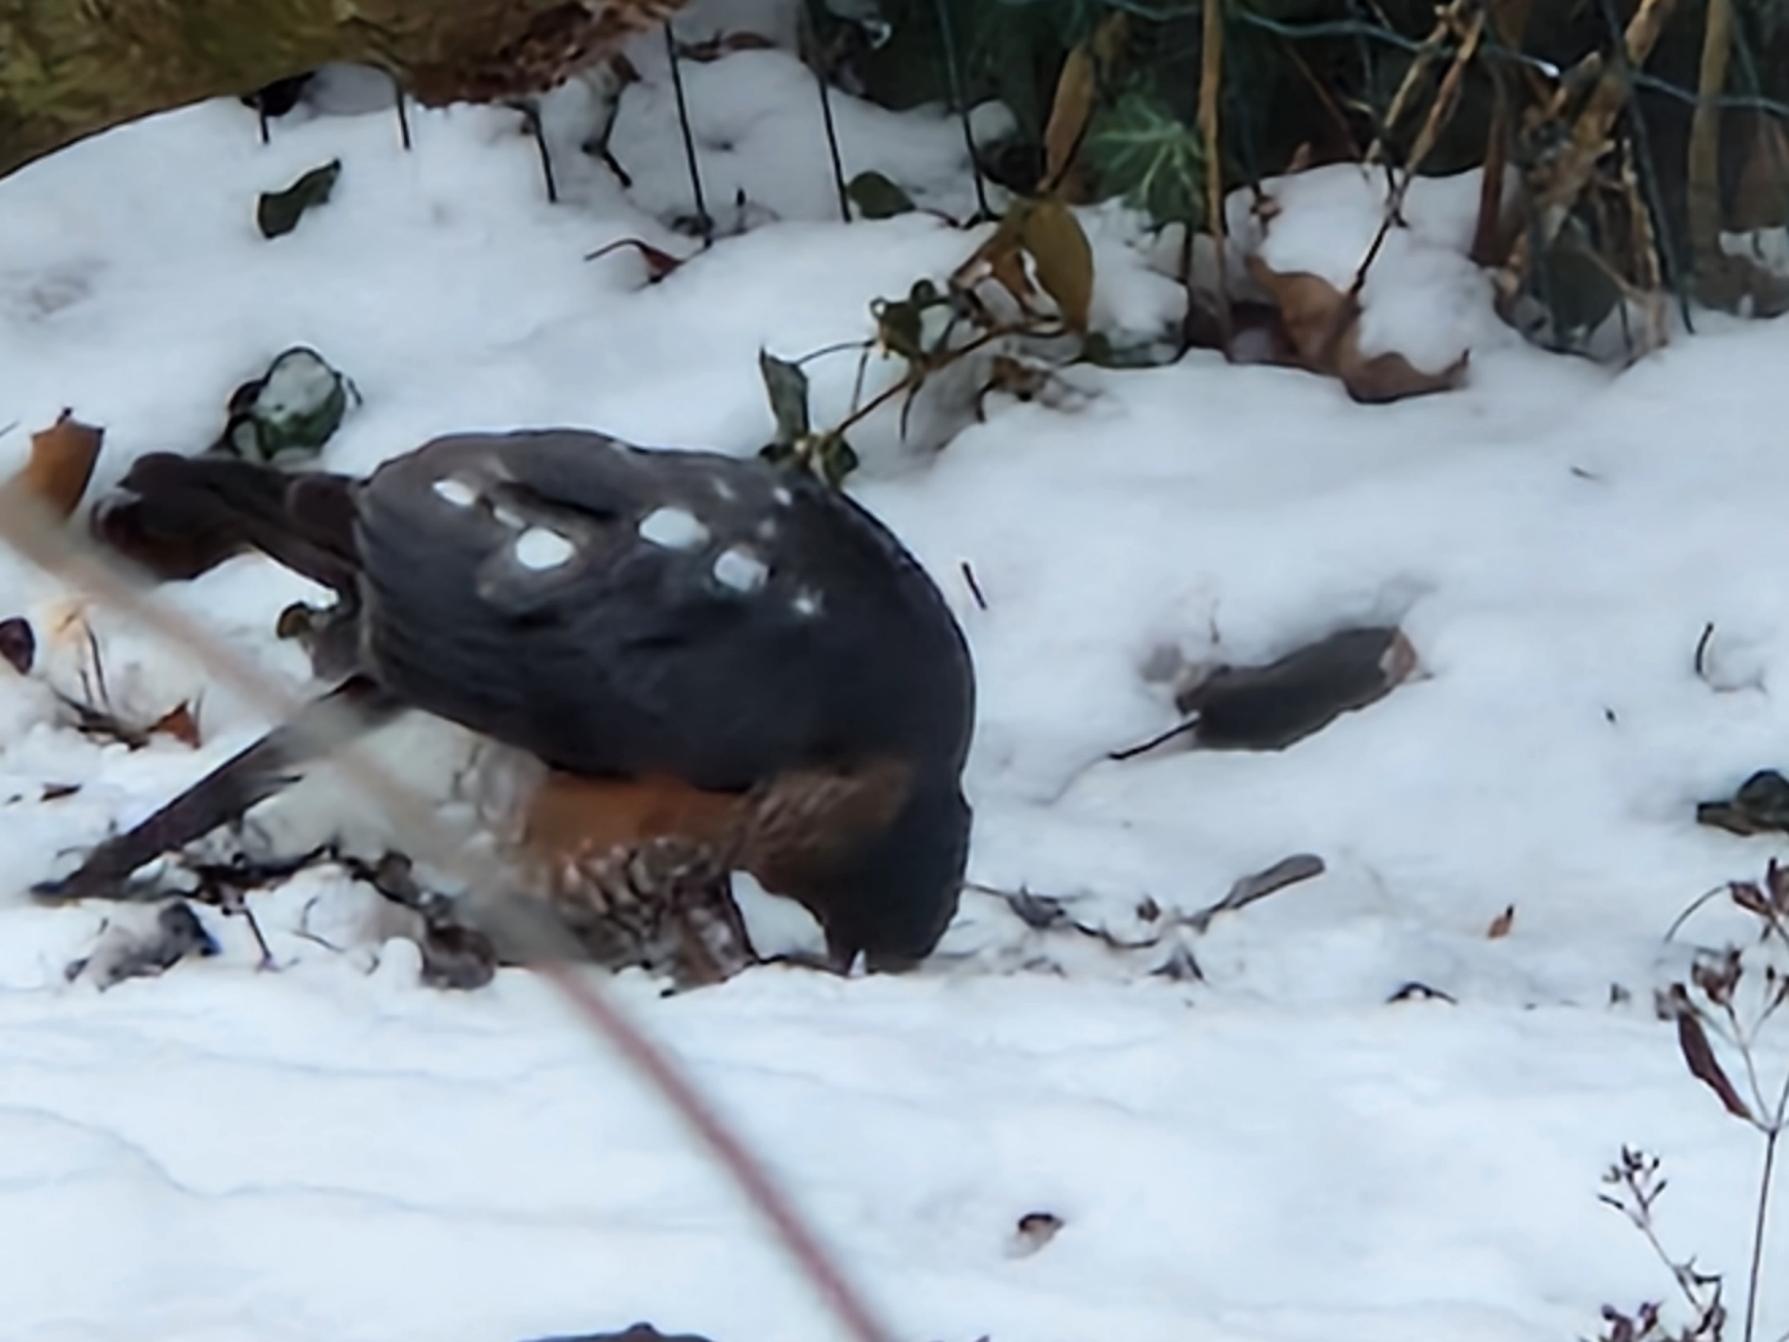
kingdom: Animalia
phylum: Chordata
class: Aves
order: Accipitriformes
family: Accipitridae
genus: Accipiter
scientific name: Accipiter nisus
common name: Spurvehøg
